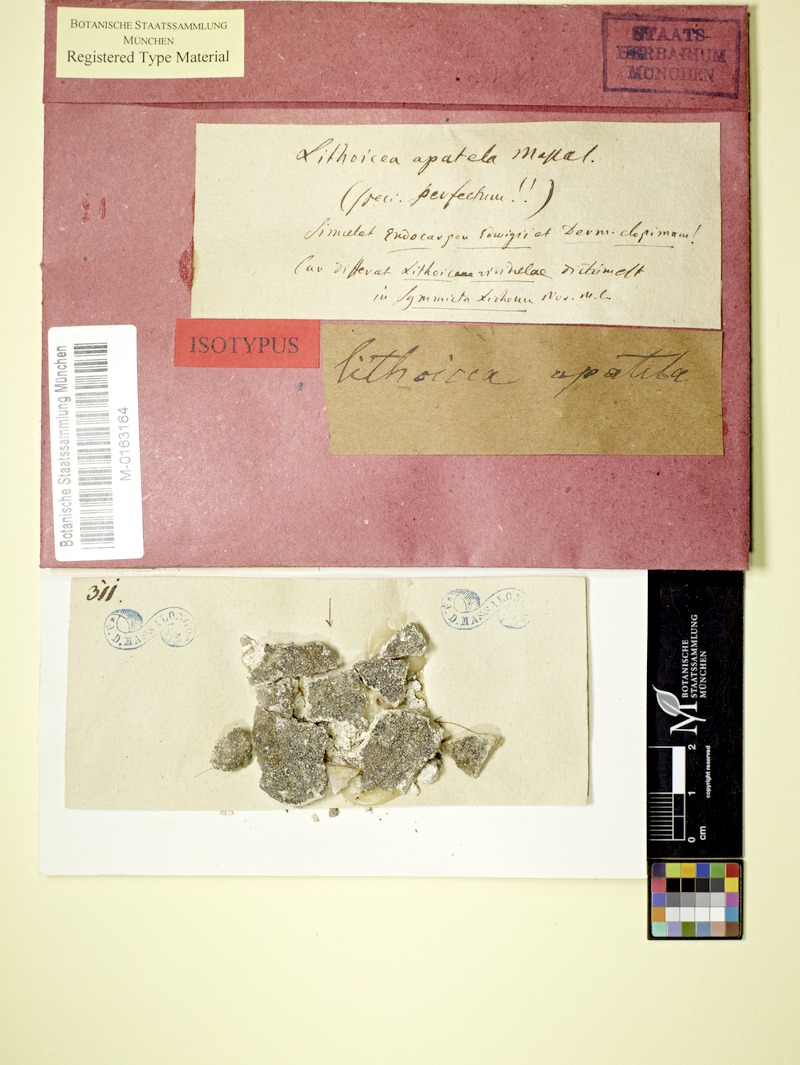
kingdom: Fungi
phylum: Ascomycota
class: Eurotiomycetes
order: Verrucariales
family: Verrucariaceae
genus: Verrucaria
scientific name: Verrucaria apatela
